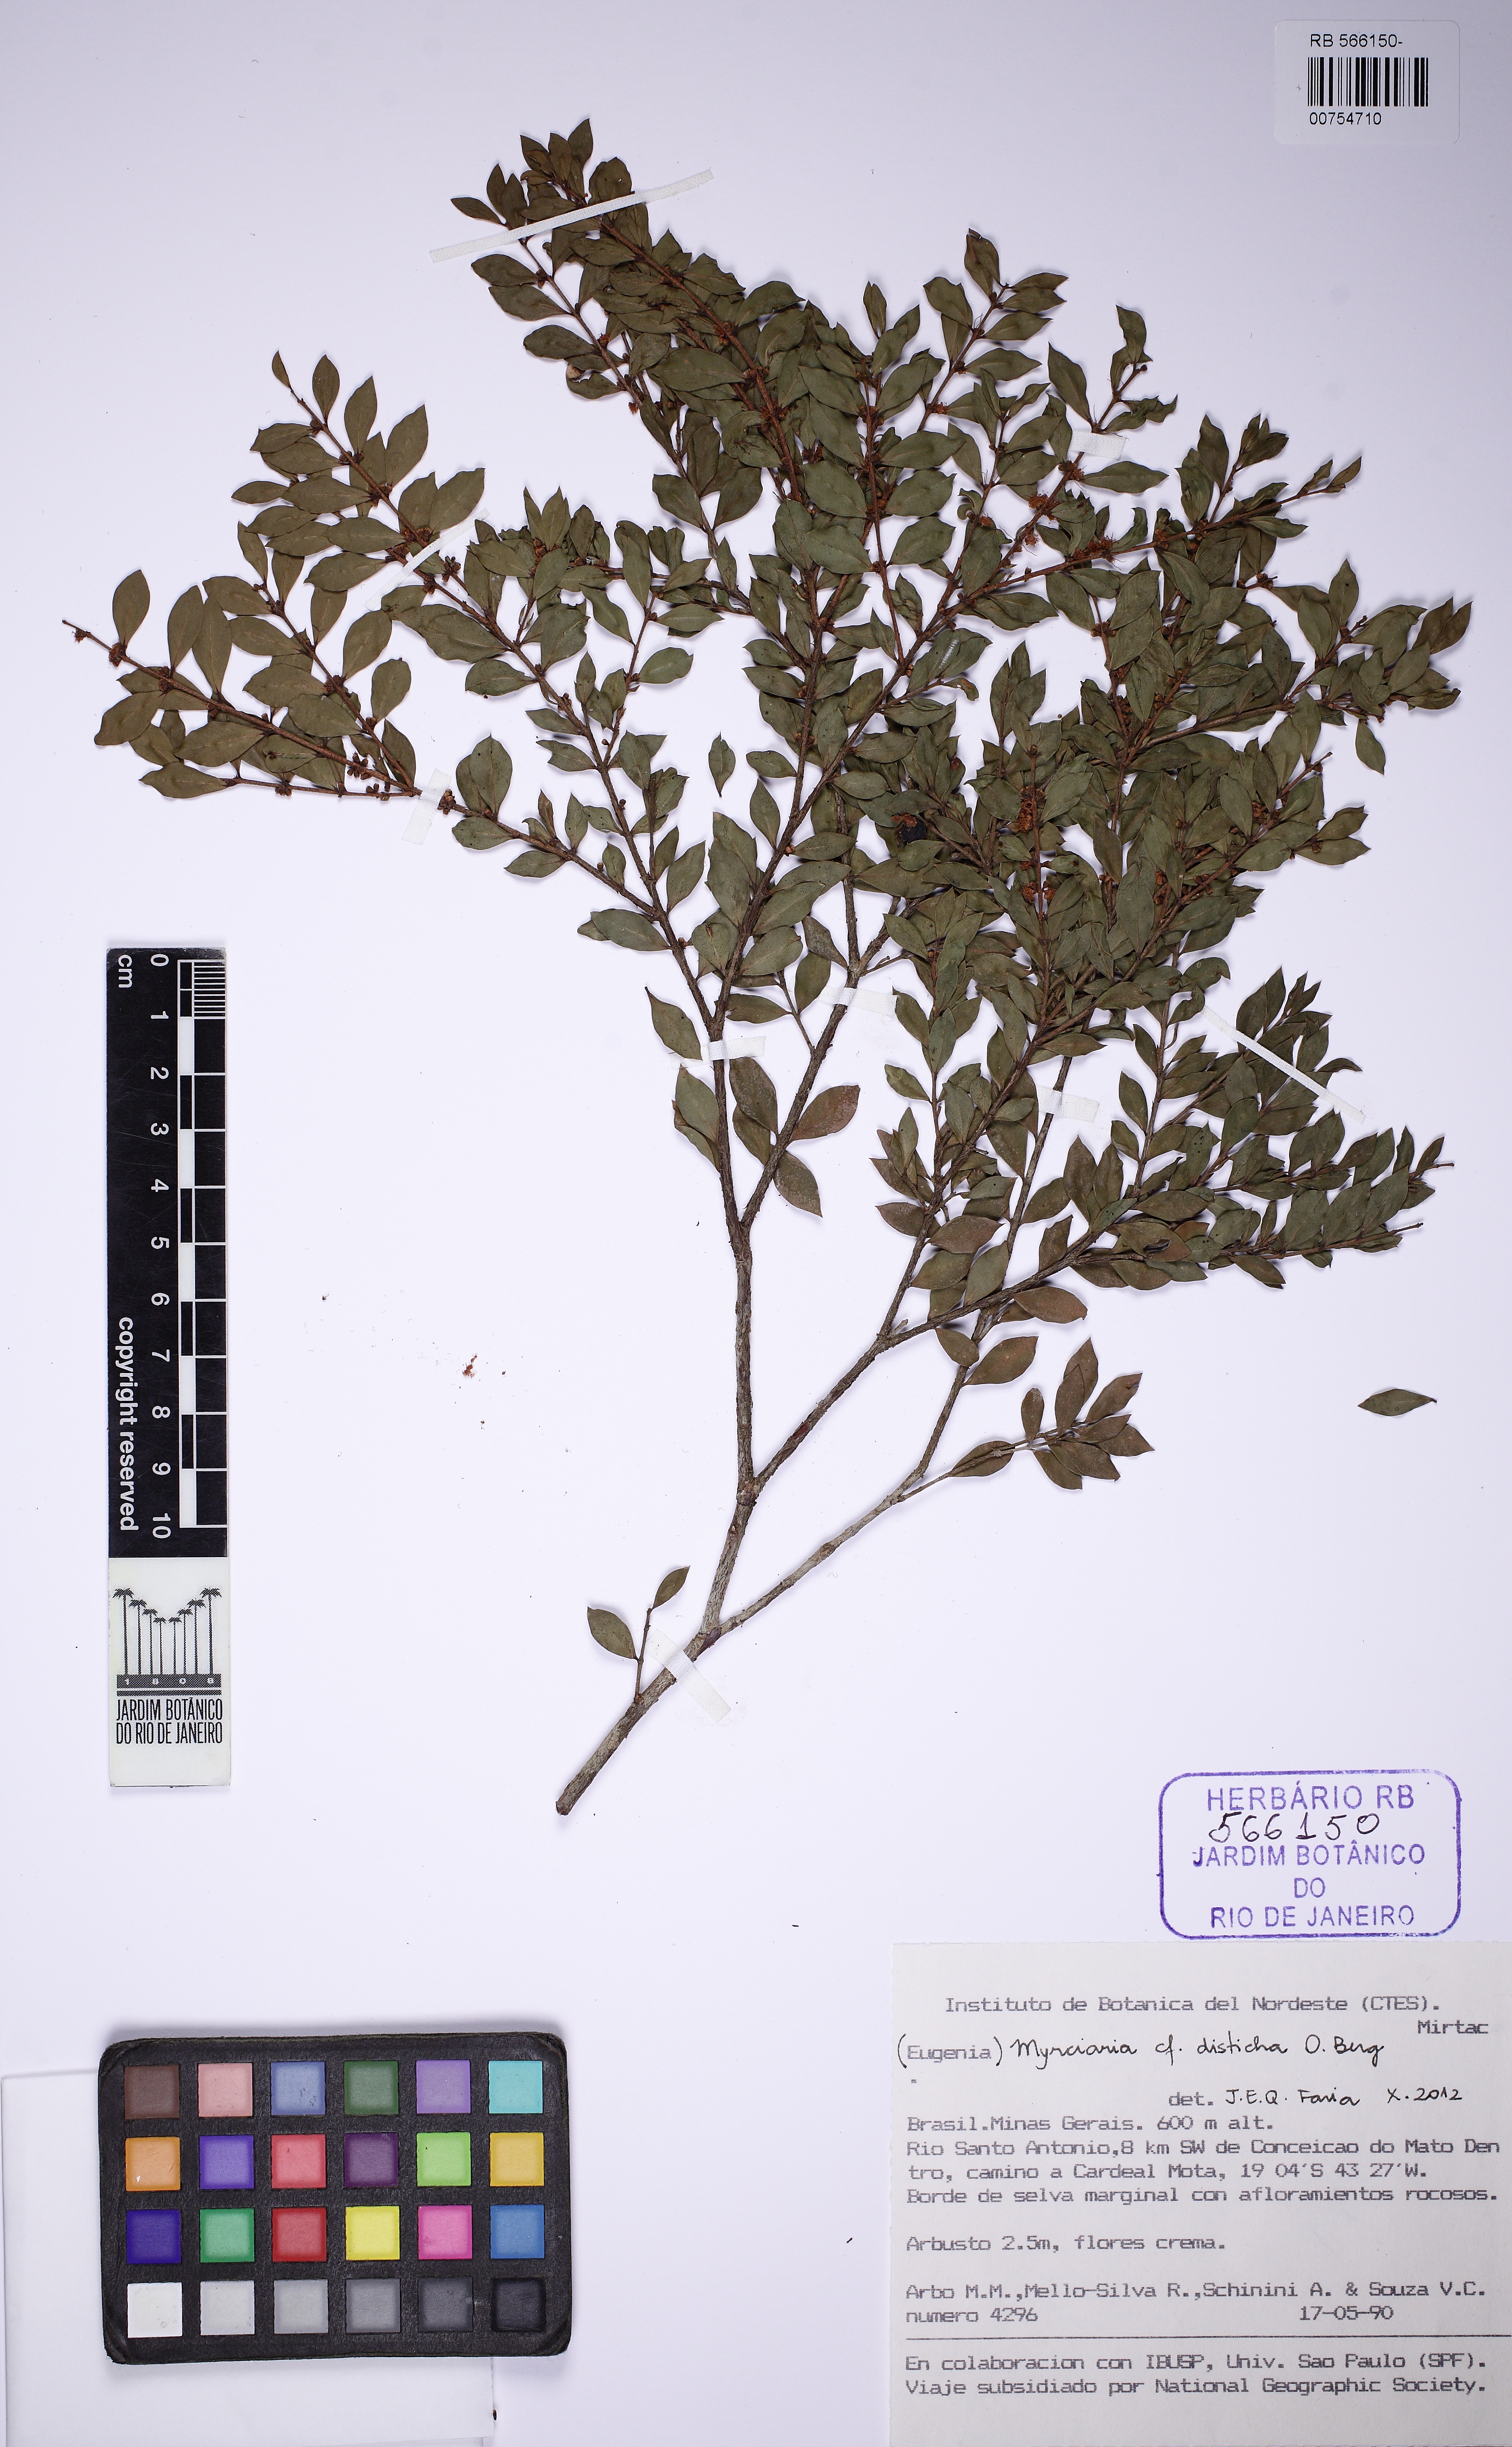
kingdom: Plantae
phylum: Tracheophyta
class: Magnoliopsida
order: Myrtales
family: Myrtaceae
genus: Myrciaria
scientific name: Myrciaria disticha
